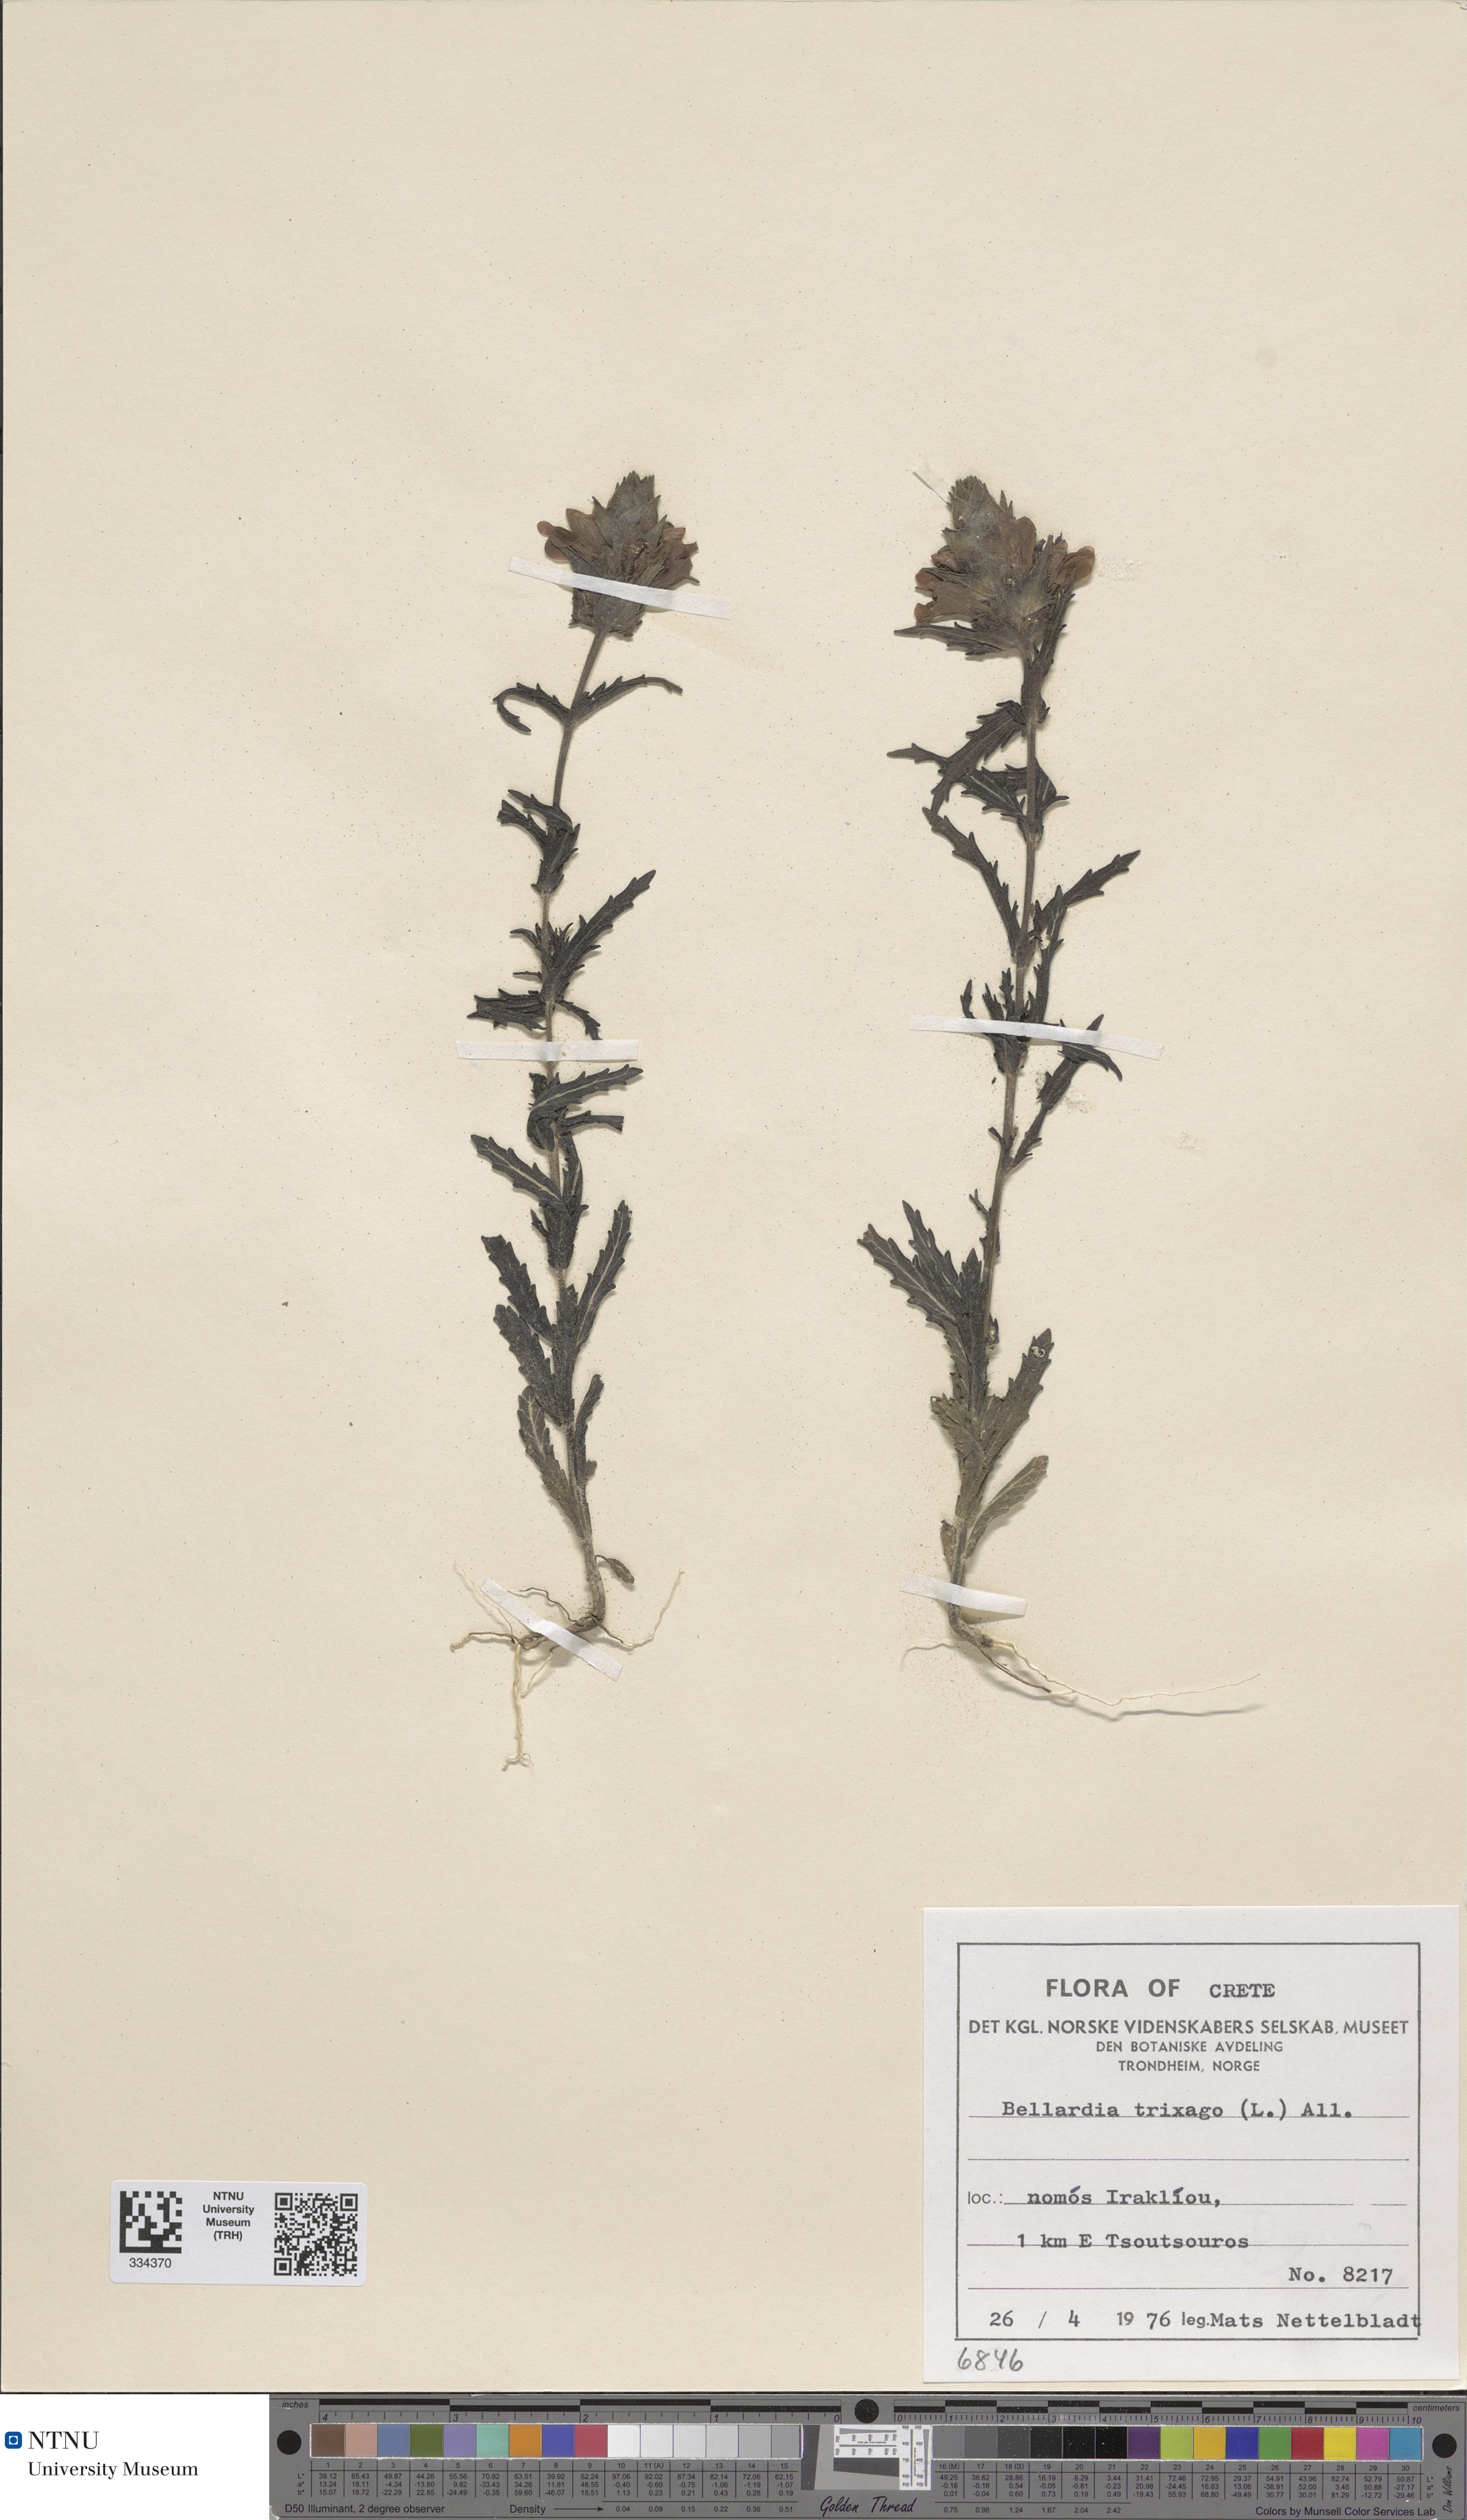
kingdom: Plantae
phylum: Tracheophyta
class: Magnoliopsida
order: Lamiales
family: Orobanchaceae
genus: Bellardia
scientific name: Bellardia trixago
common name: Mediterranean lineseed
